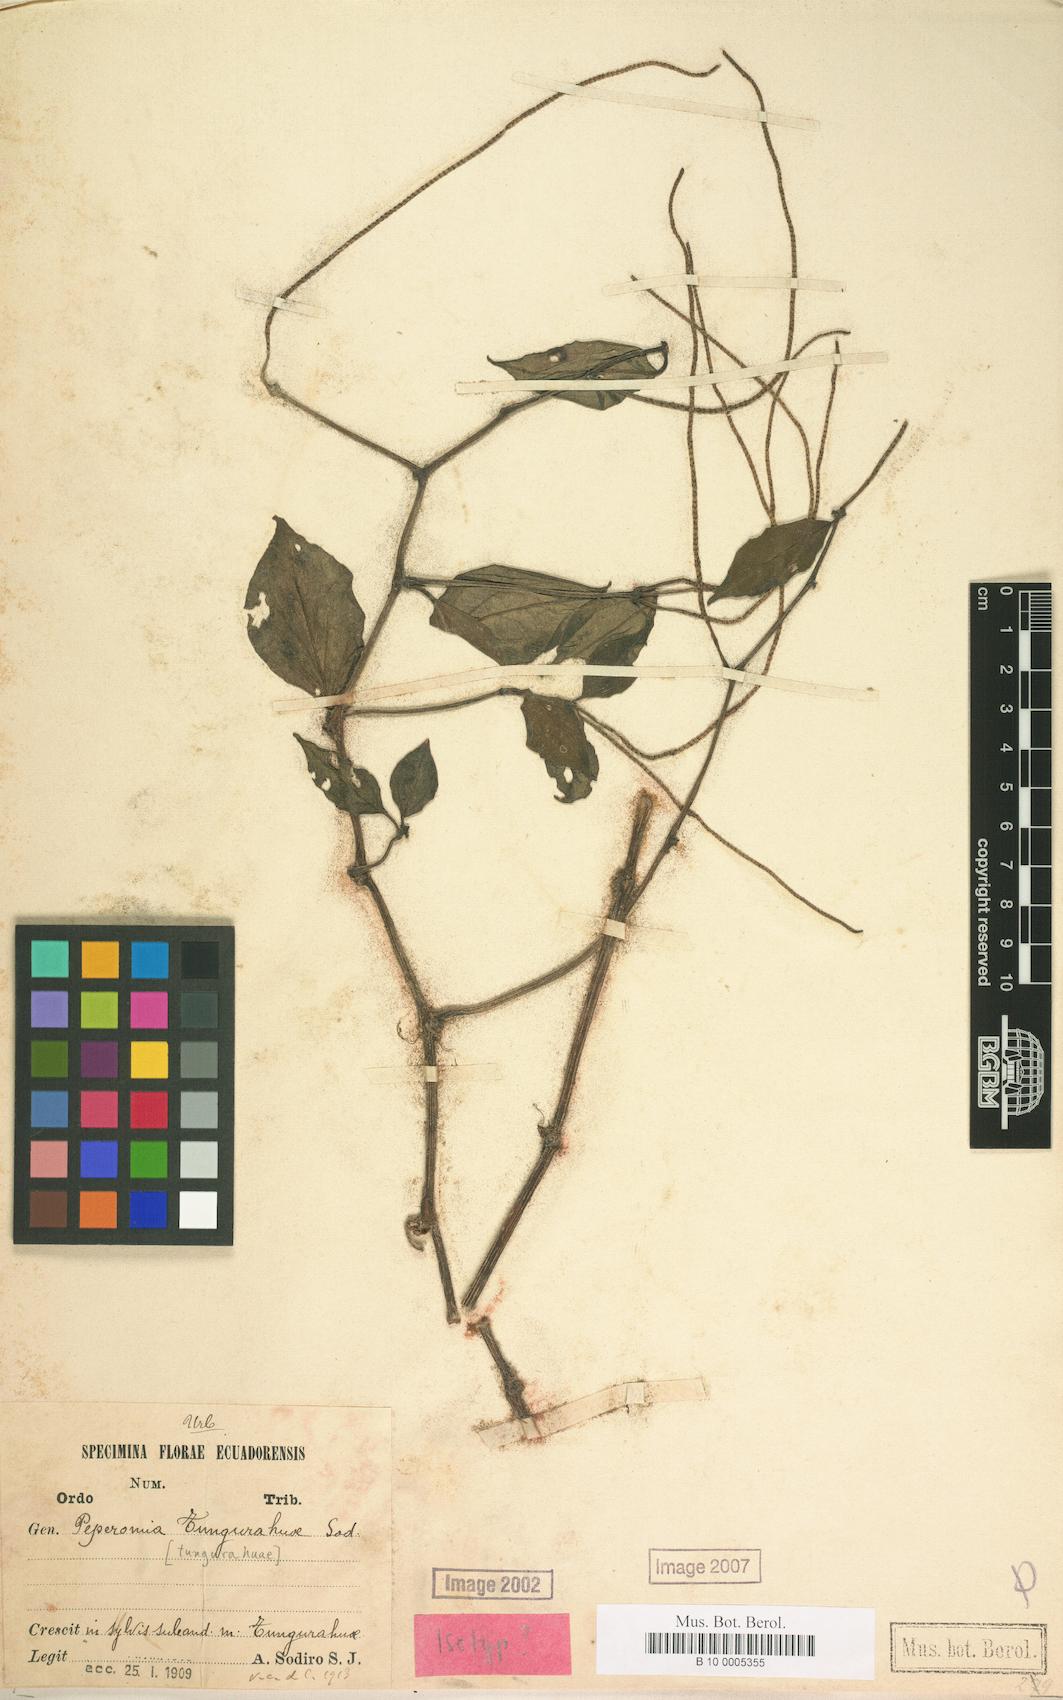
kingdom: Plantae
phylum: Tracheophyta
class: Magnoliopsida
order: Piperales
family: Piperaceae
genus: Peperomia
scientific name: Peperomia tungurahuae
